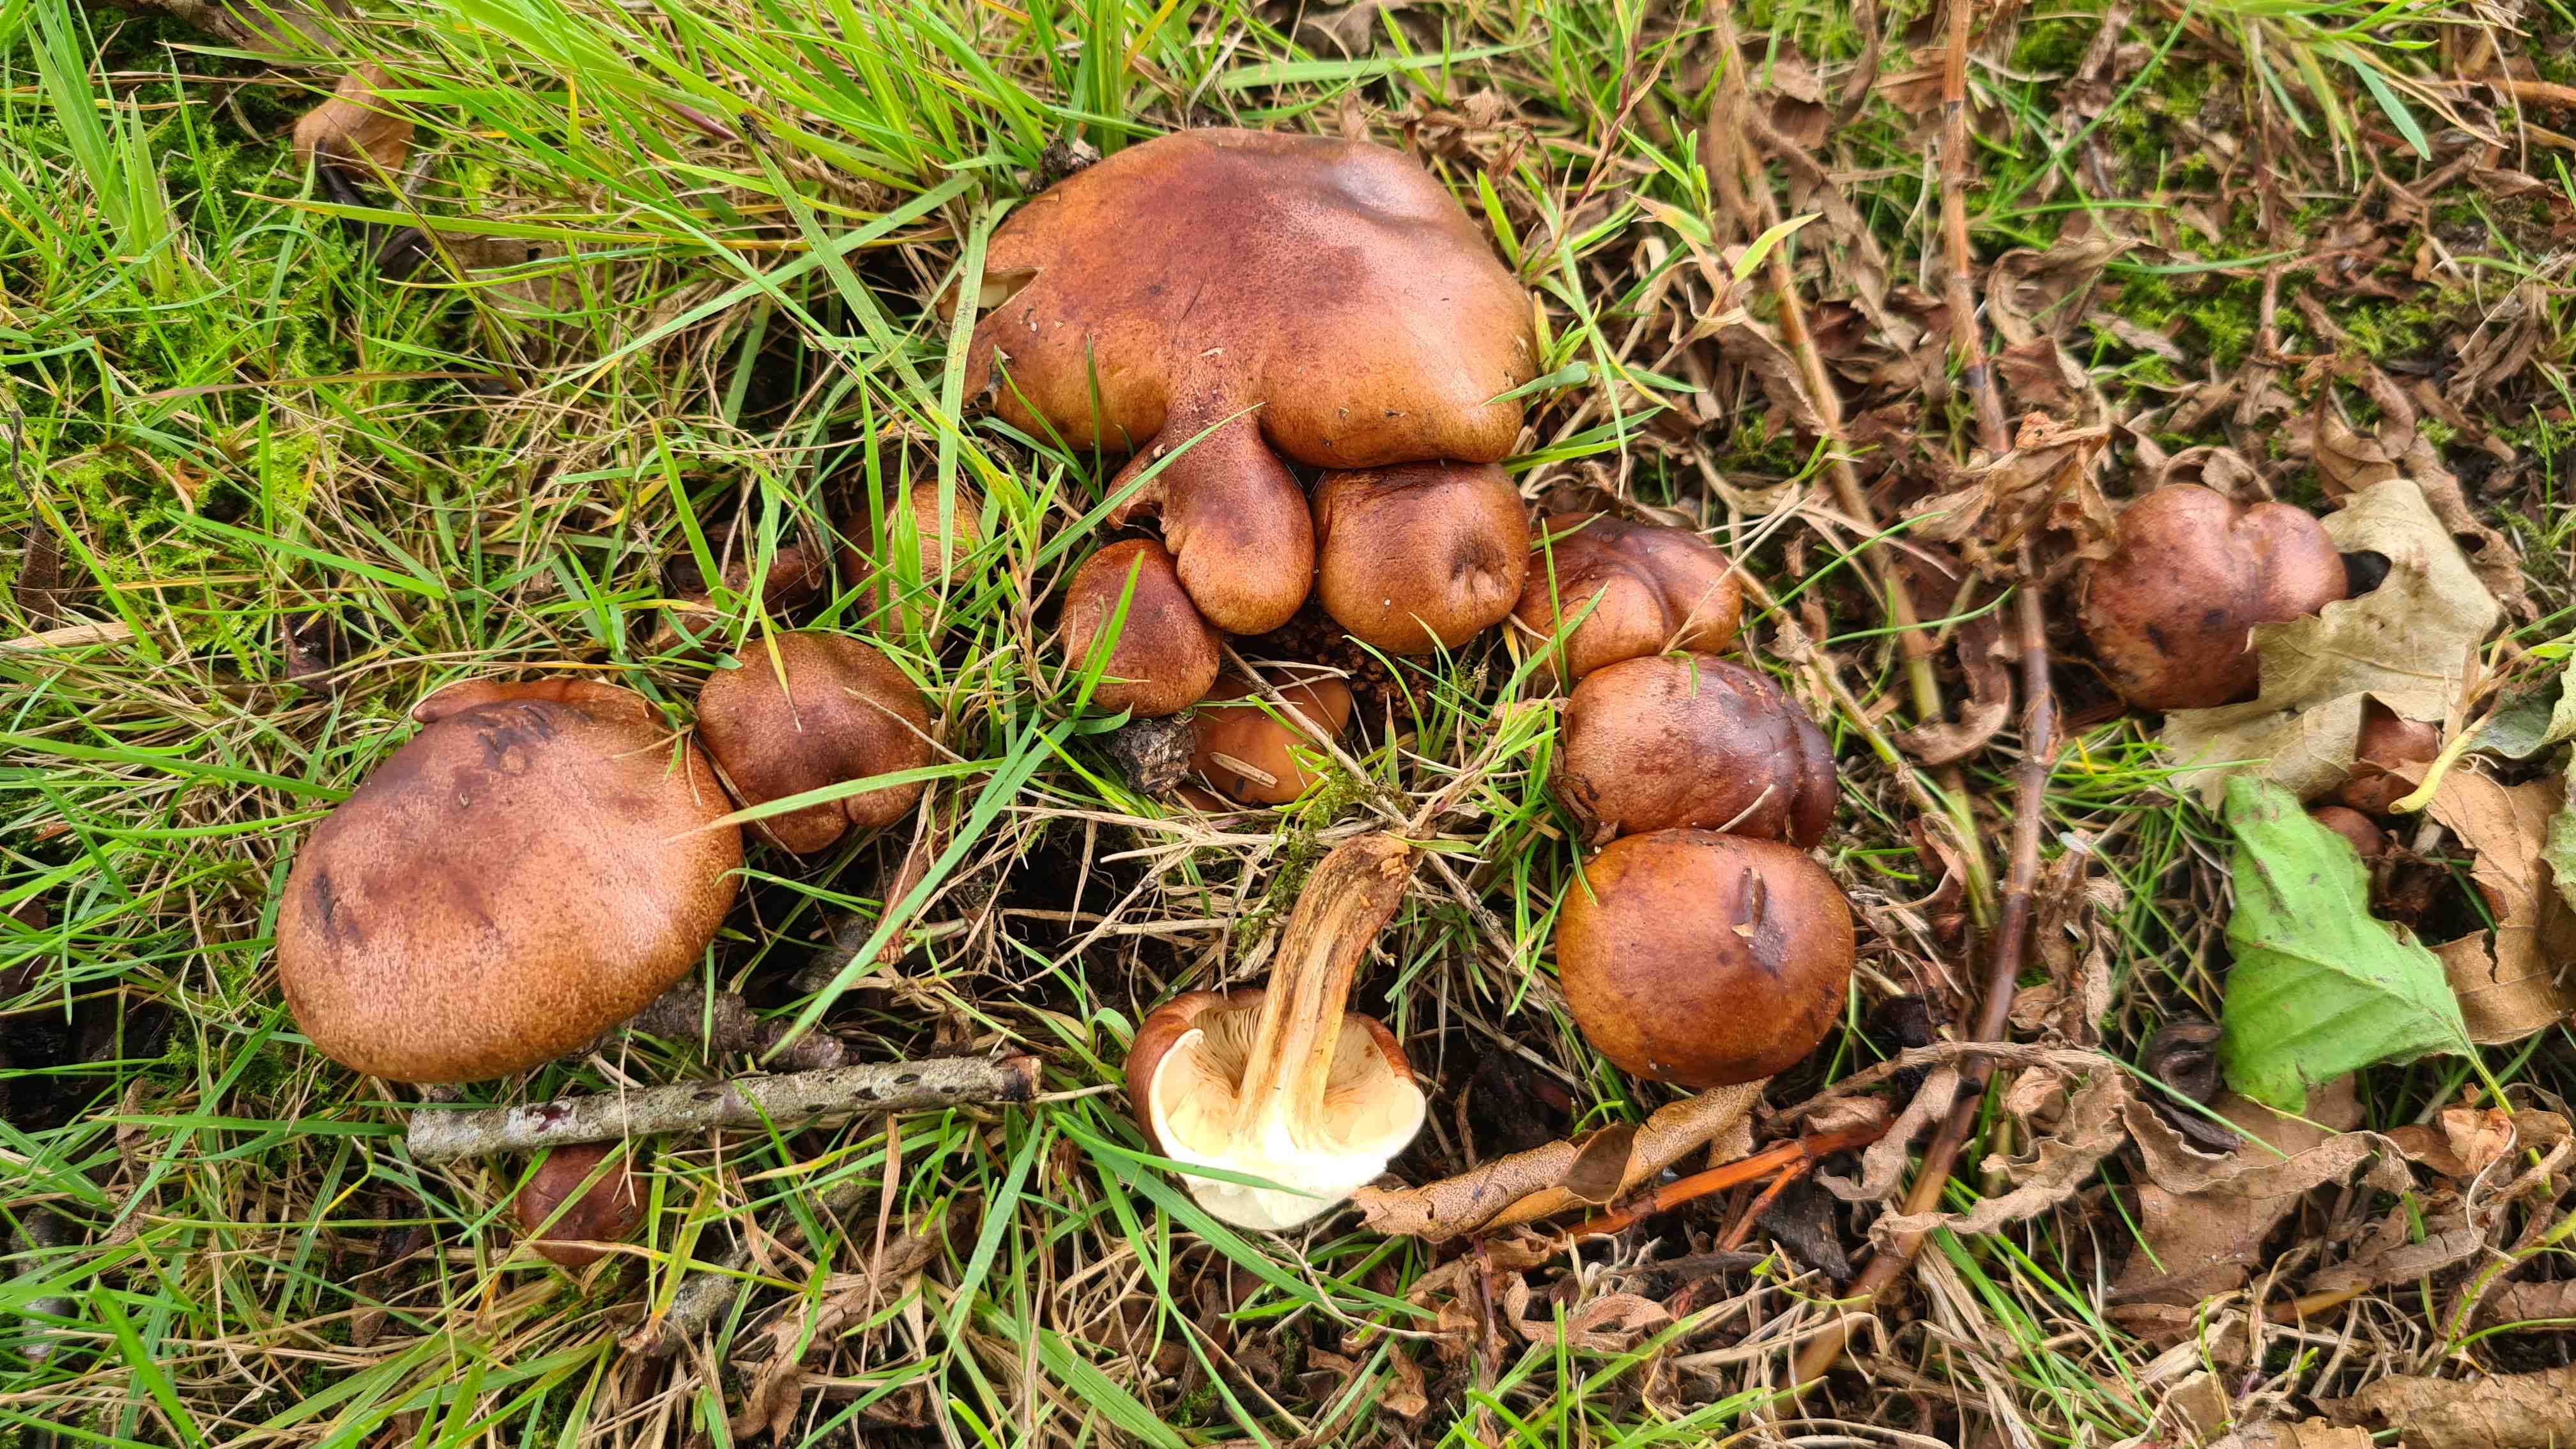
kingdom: Fungi
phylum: Basidiomycota
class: Agaricomycetes
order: Agaricales
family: Tricholomataceae
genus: Tricholoma
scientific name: Tricholoma fulvum
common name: birke-ridderhat
